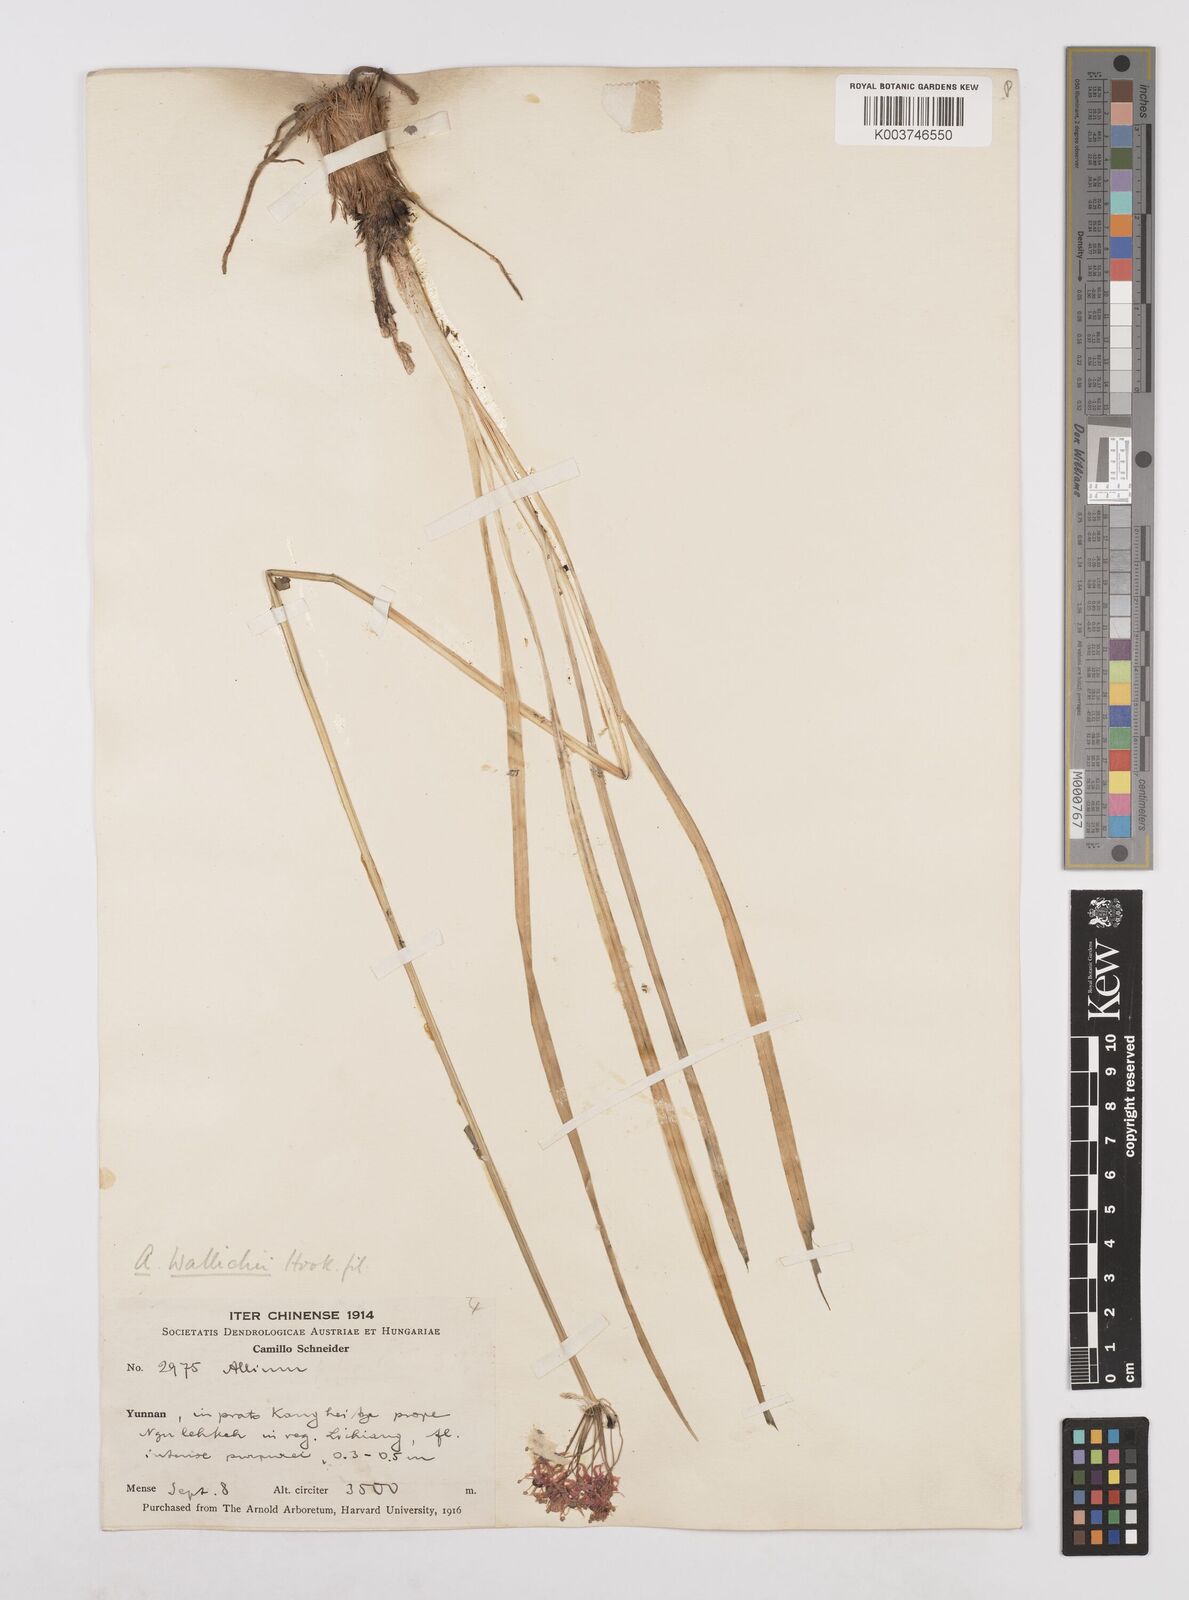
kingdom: Plantae
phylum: Tracheophyta
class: Liliopsida
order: Asparagales
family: Amaryllidaceae
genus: Allium
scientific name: Allium wallichii
